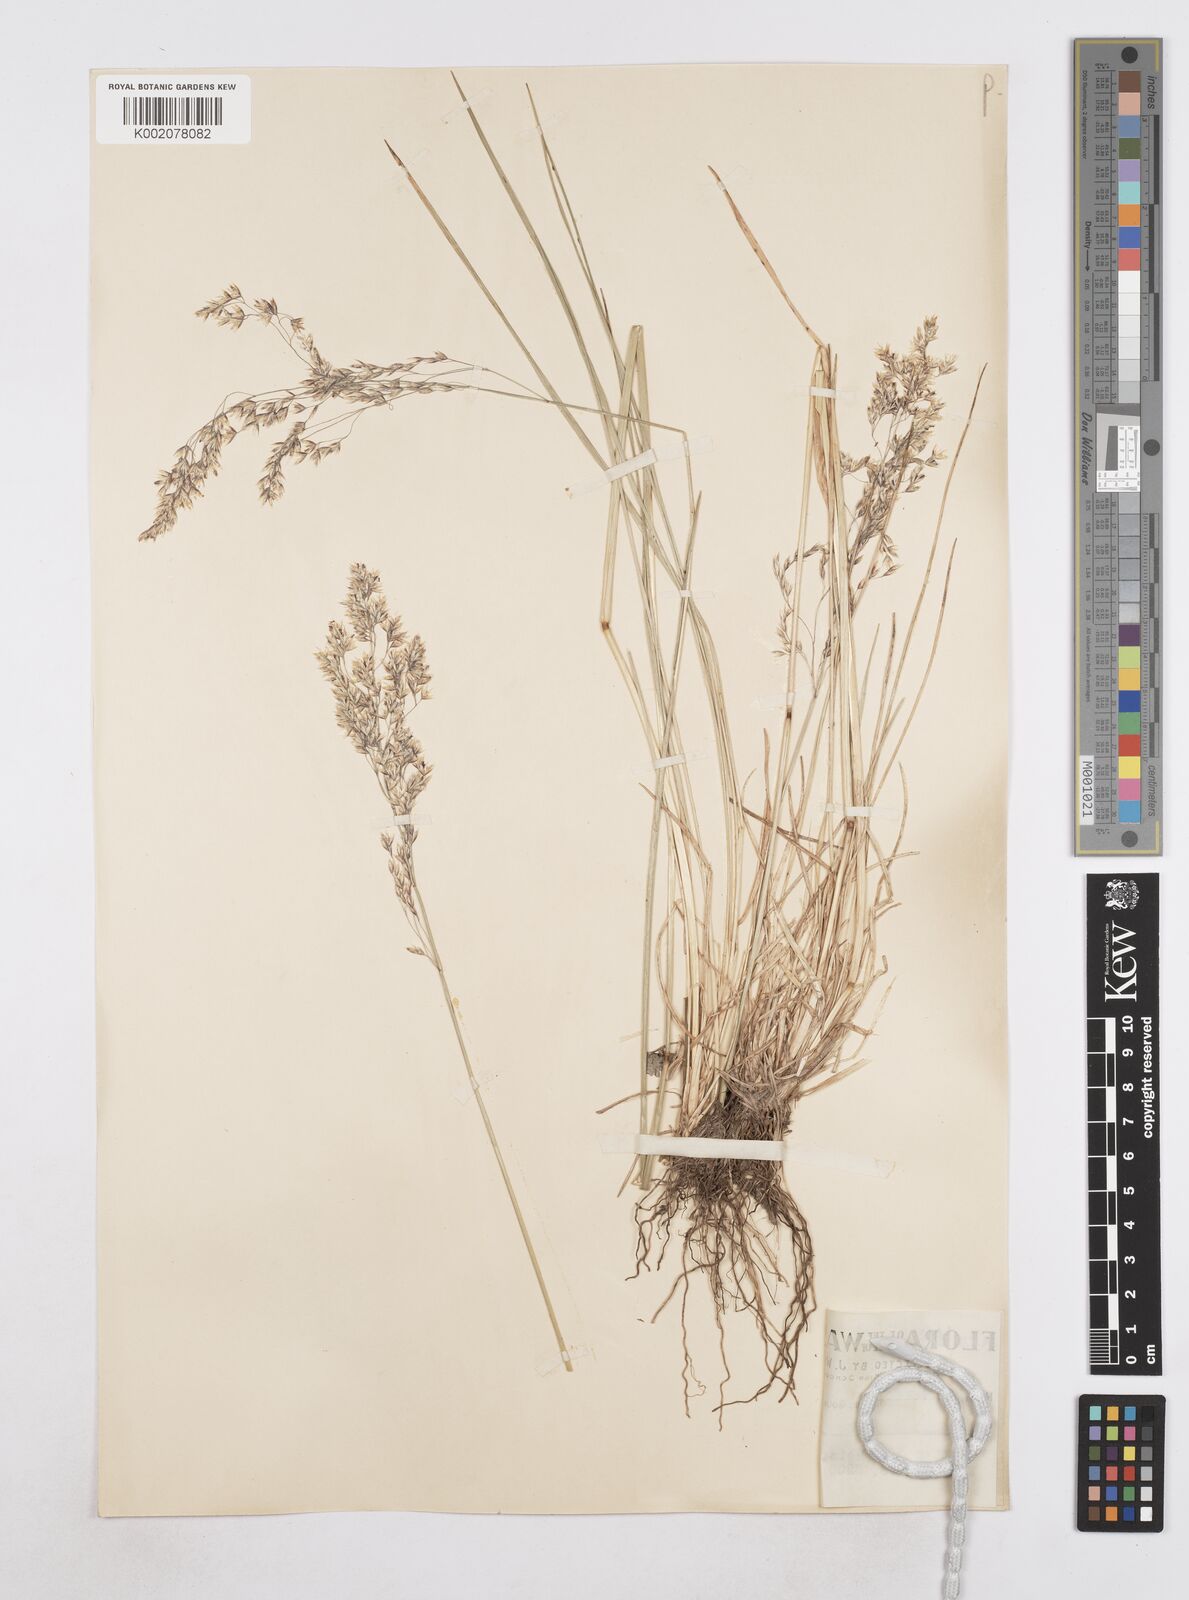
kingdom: Plantae
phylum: Tracheophyta
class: Liliopsida
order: Poales
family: Poaceae
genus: Poa
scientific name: Poa
